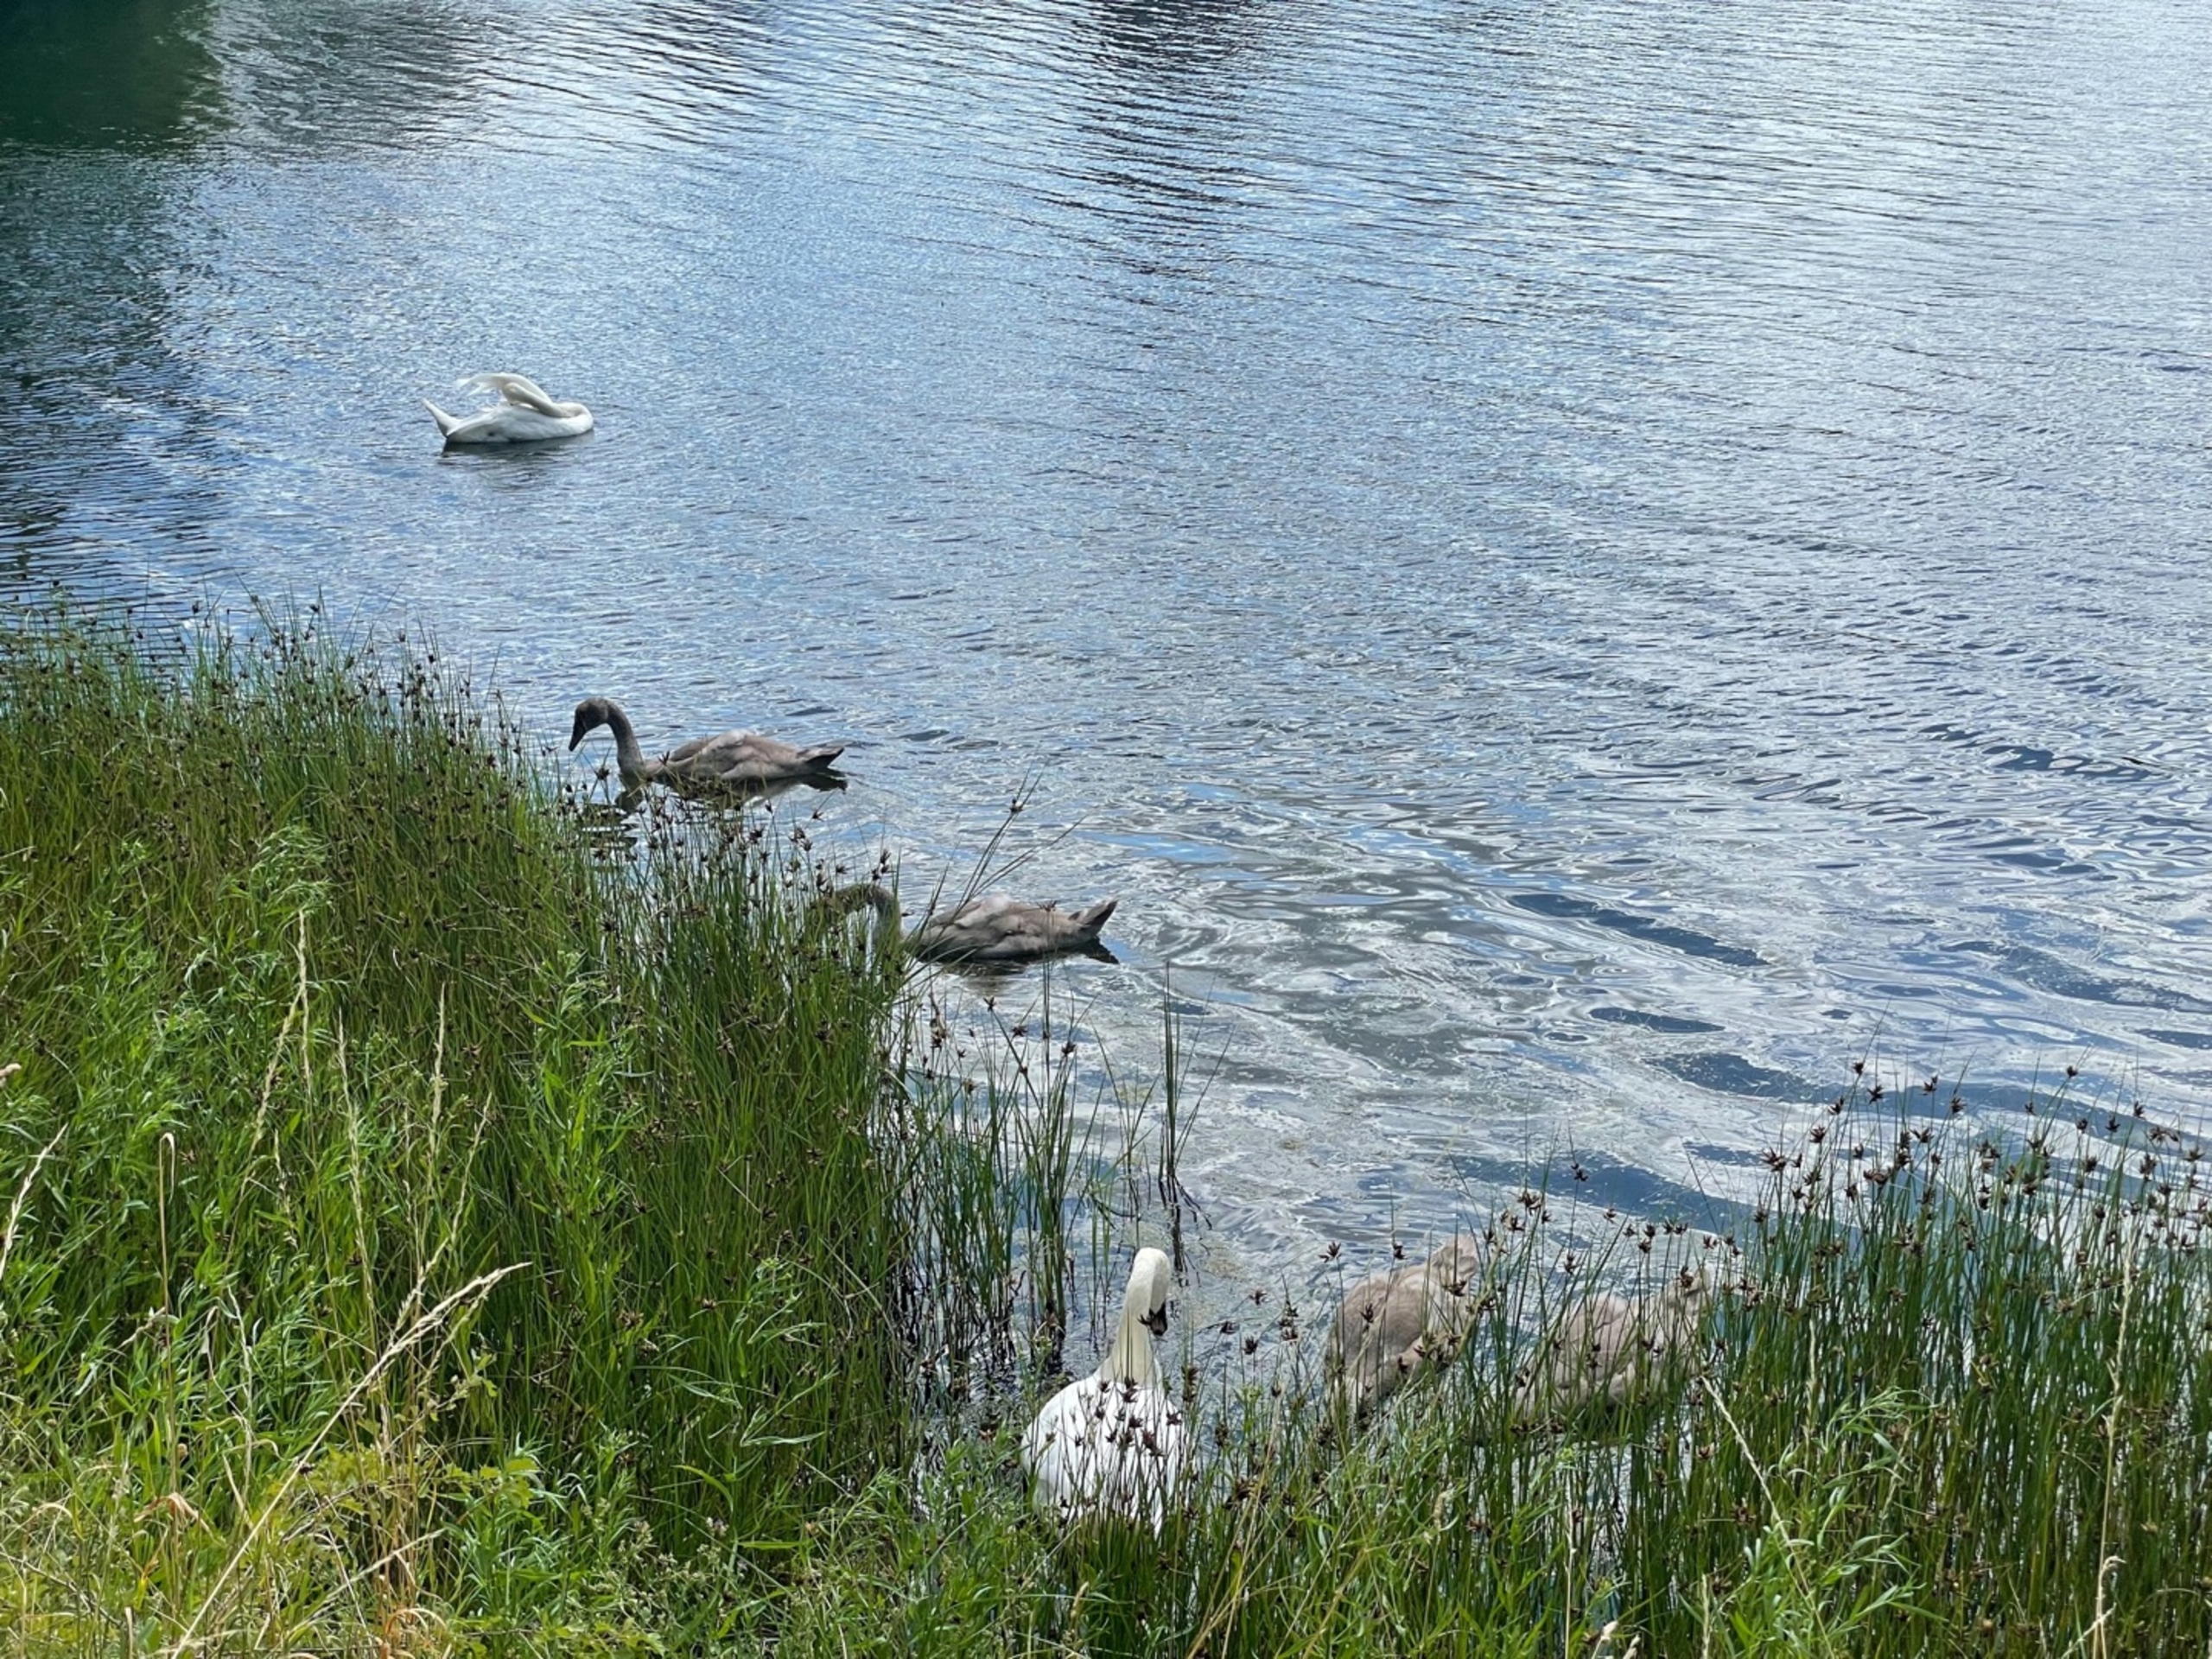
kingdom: Animalia
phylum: Chordata
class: Aves
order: Anseriformes
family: Anatidae
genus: Cygnus
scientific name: Cygnus olor
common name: Knopsvane
